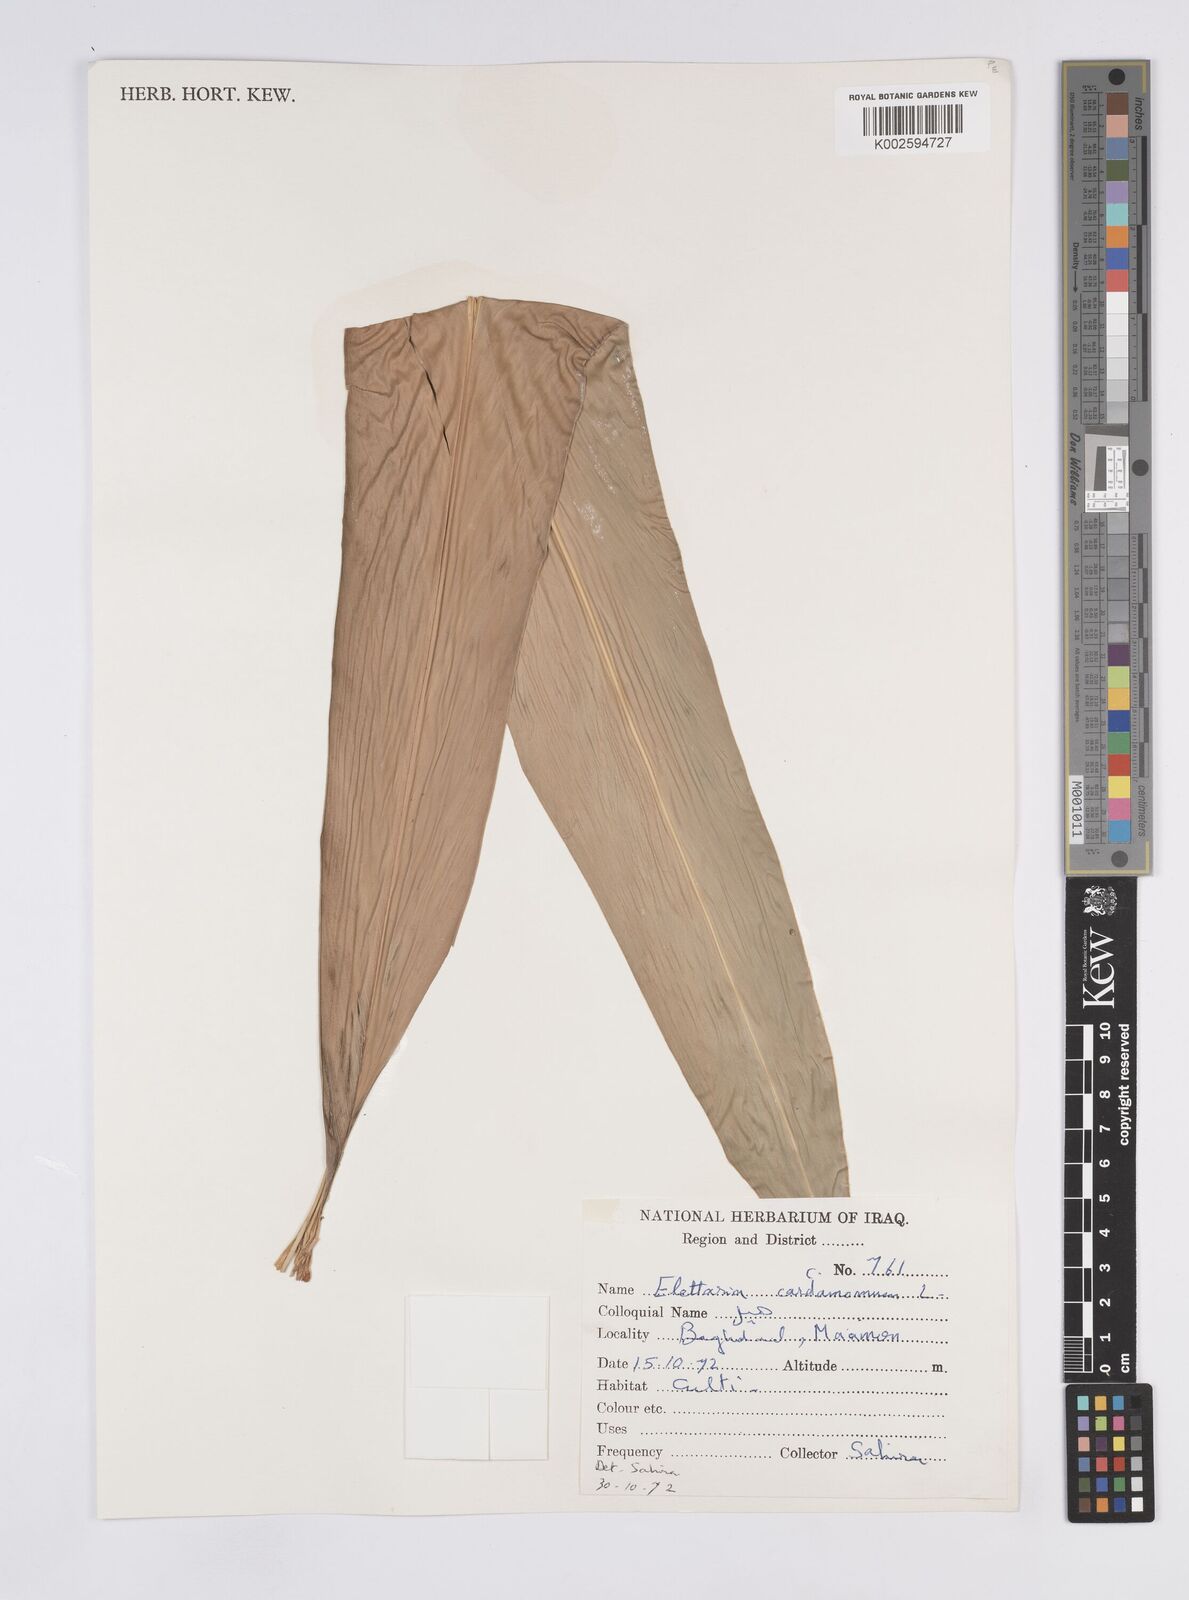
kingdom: Plantae
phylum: Tracheophyta
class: Liliopsida
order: Zingiberales
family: Zingiberaceae
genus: Elettaria
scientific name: Elettaria cardamomum
